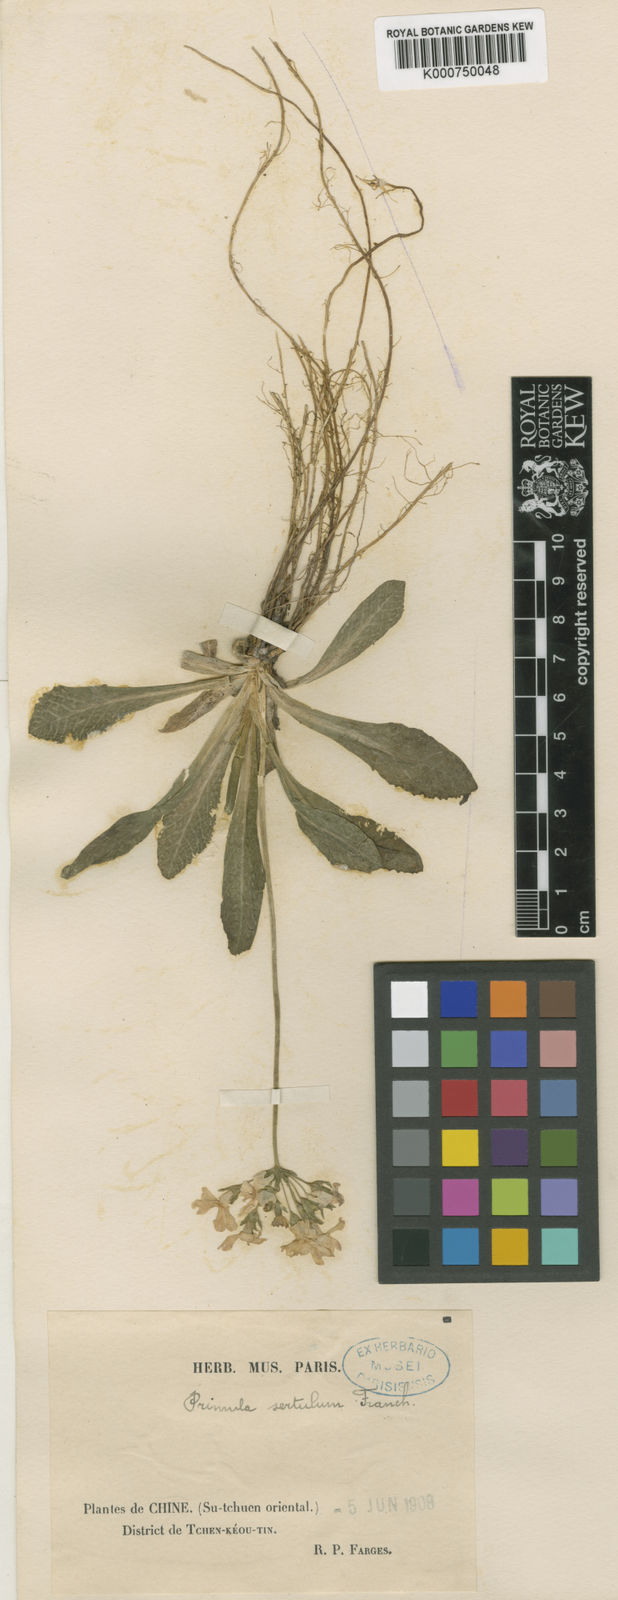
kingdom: Plantae
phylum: Tracheophyta
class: Magnoliopsida
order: Ericales
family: Primulaceae
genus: Primula
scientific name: Primula sertulum
